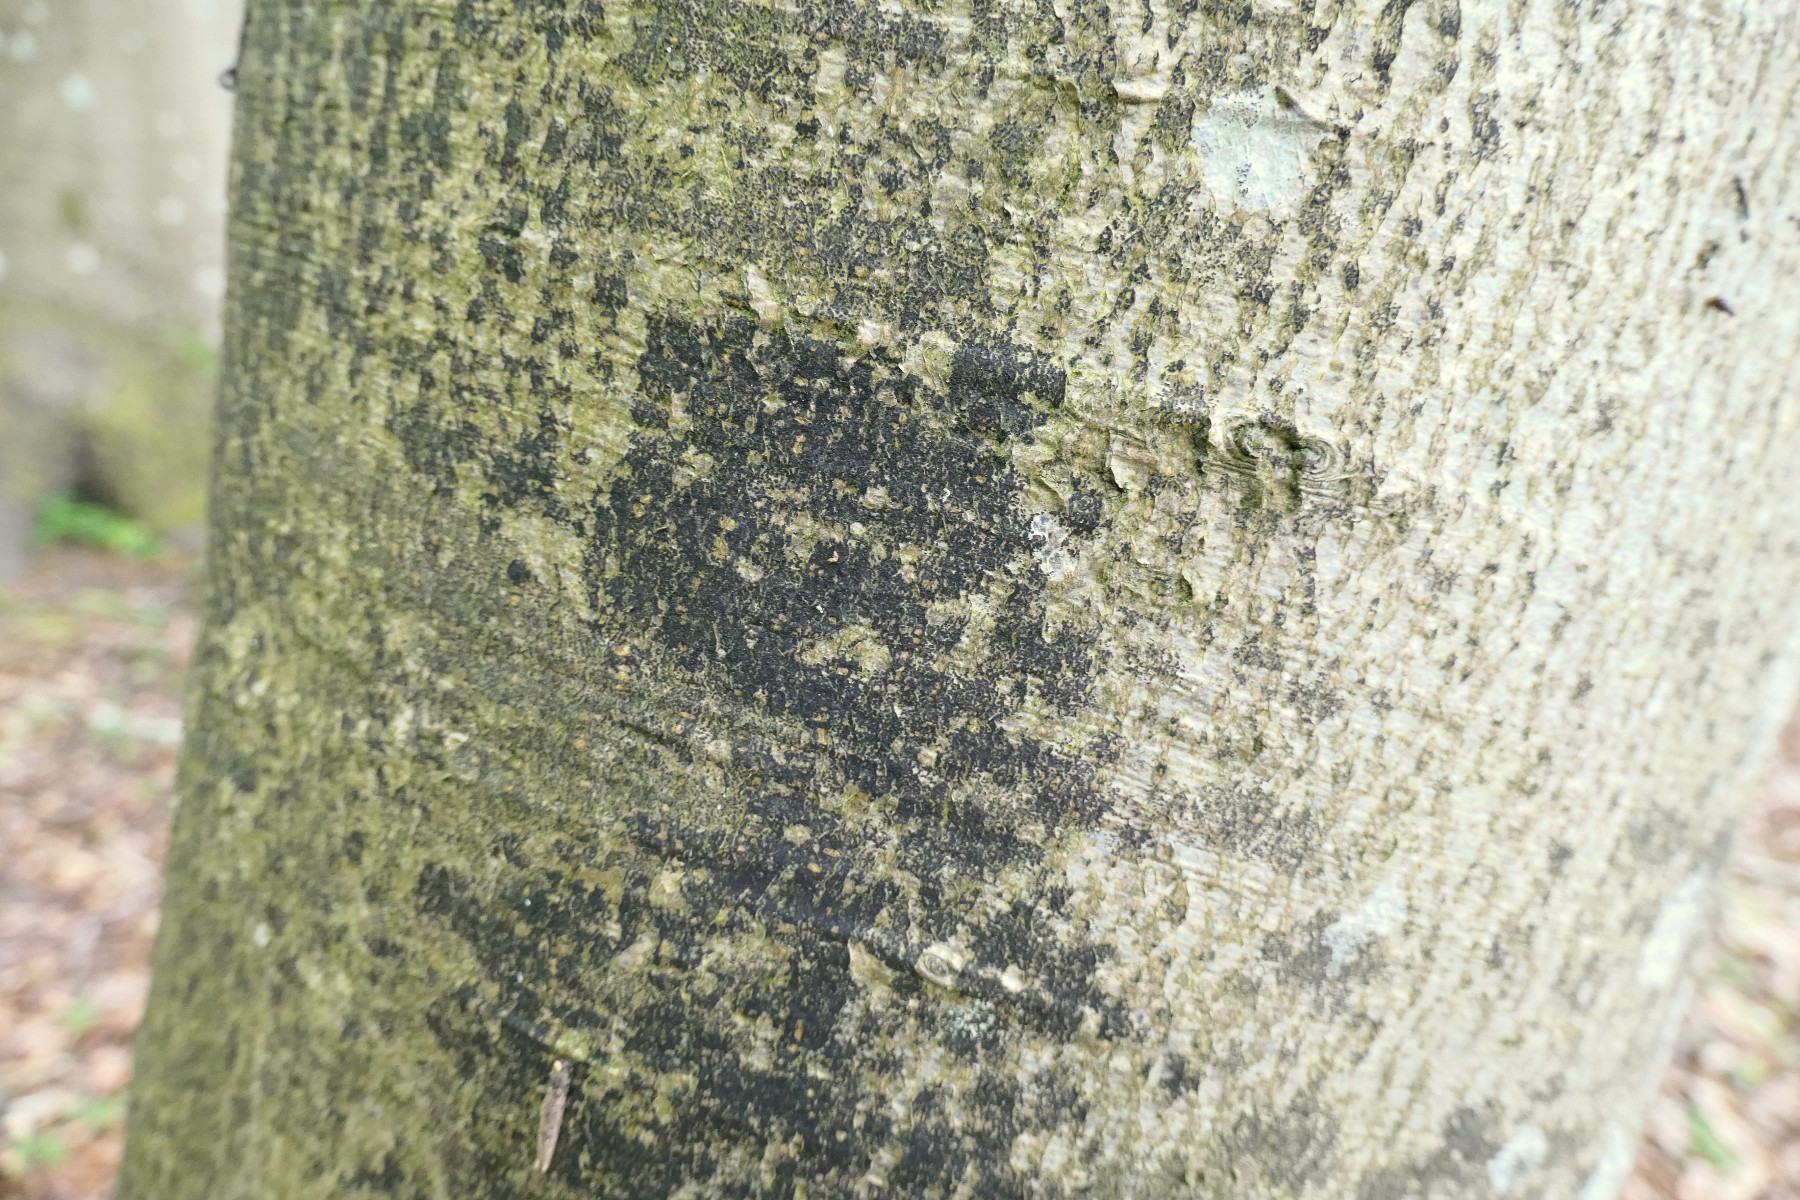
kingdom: Fungi
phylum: Ascomycota
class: Leotiomycetes
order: Rhytismatales
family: Ascodichaenaceae
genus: Ascodichaena
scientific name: Ascodichaena rugosa
